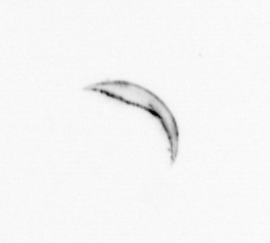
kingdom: Chromista
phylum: Ochrophyta
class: Bacillariophyceae
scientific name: Bacillariophyceae
